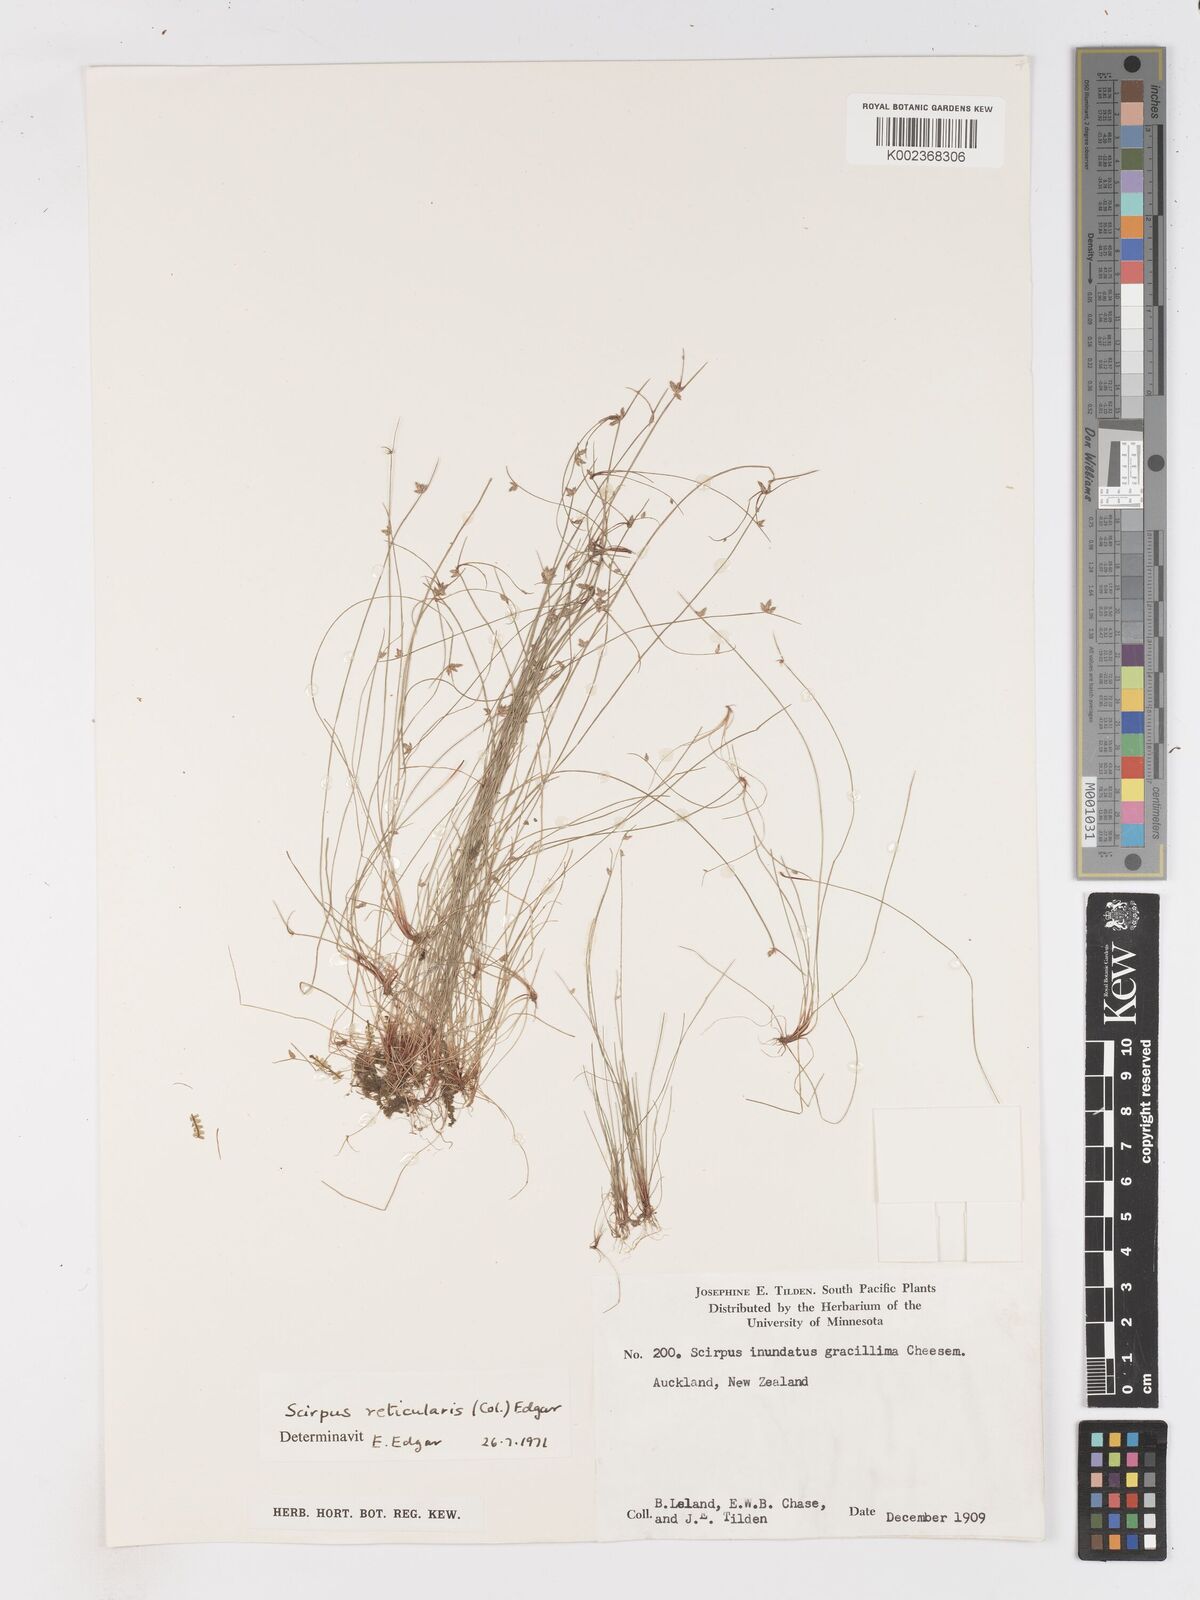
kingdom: Plantae
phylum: Tracheophyta
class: Liliopsida
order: Poales
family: Cyperaceae
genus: Isolepis
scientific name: Isolepis reticularis
